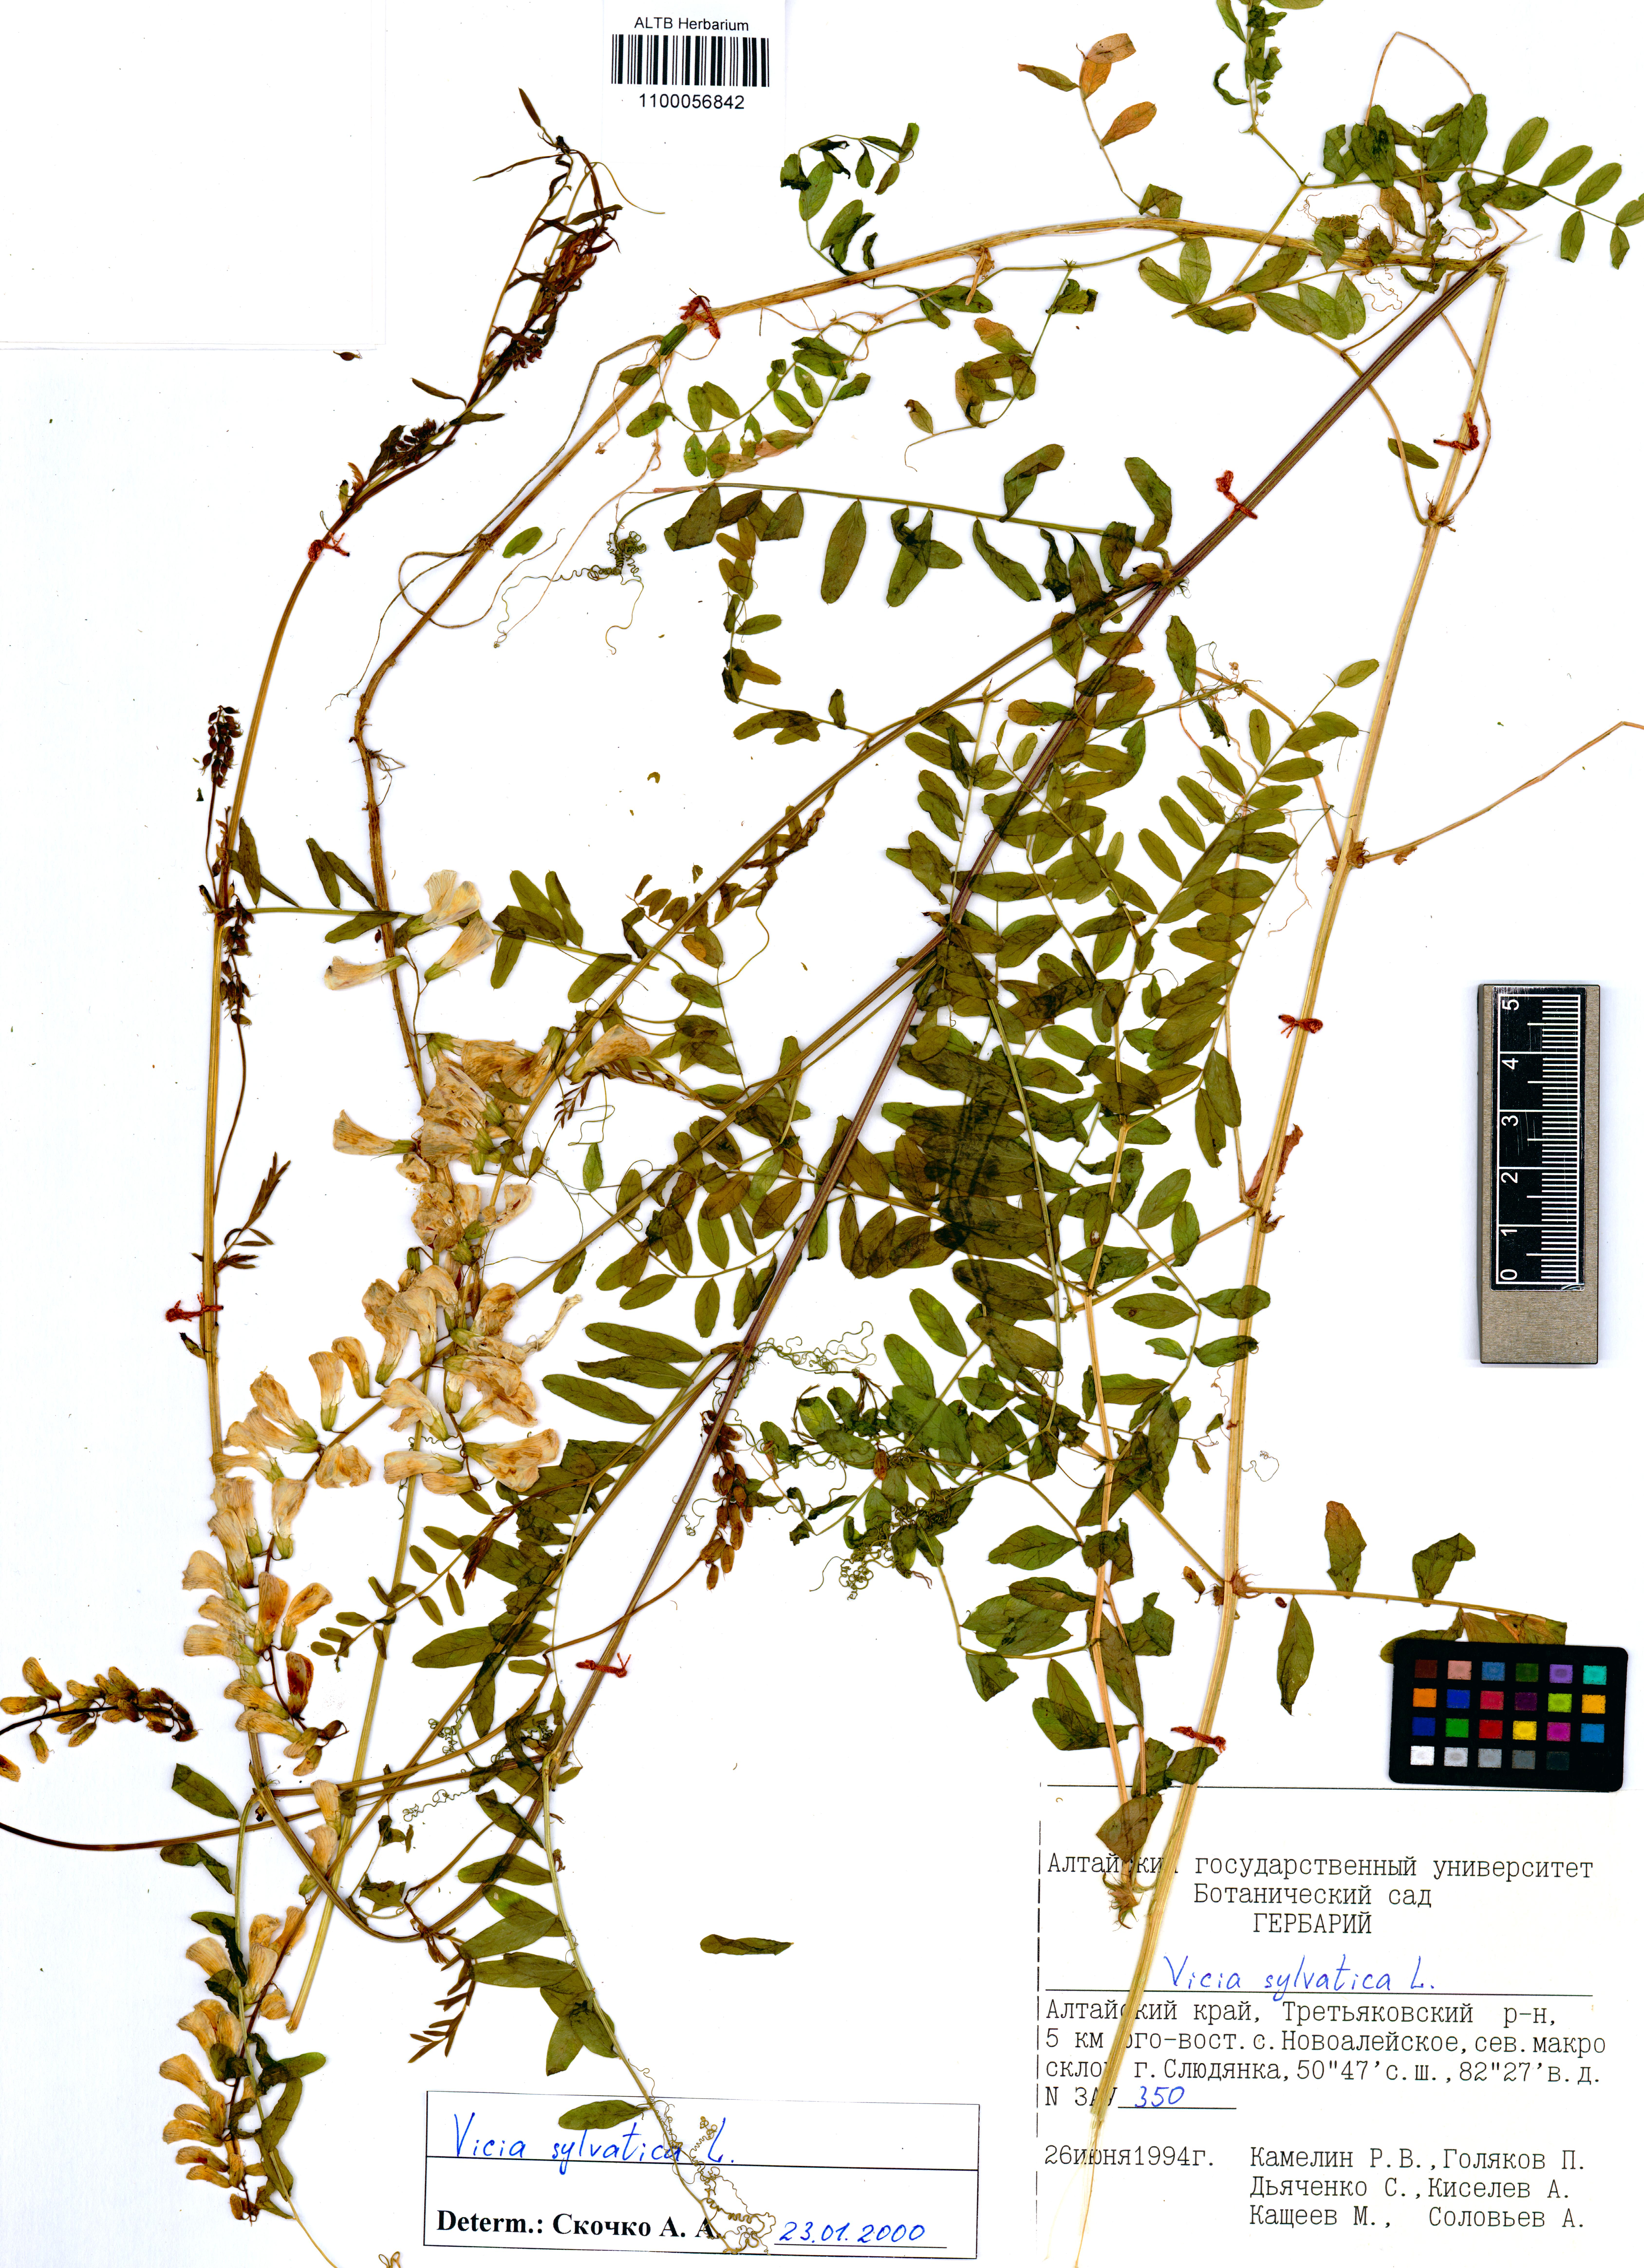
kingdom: Plantae
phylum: Tracheophyta
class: Magnoliopsida
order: Fabales
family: Fabaceae
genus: Vicia
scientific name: Vicia sylvatica
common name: Wood vetch
